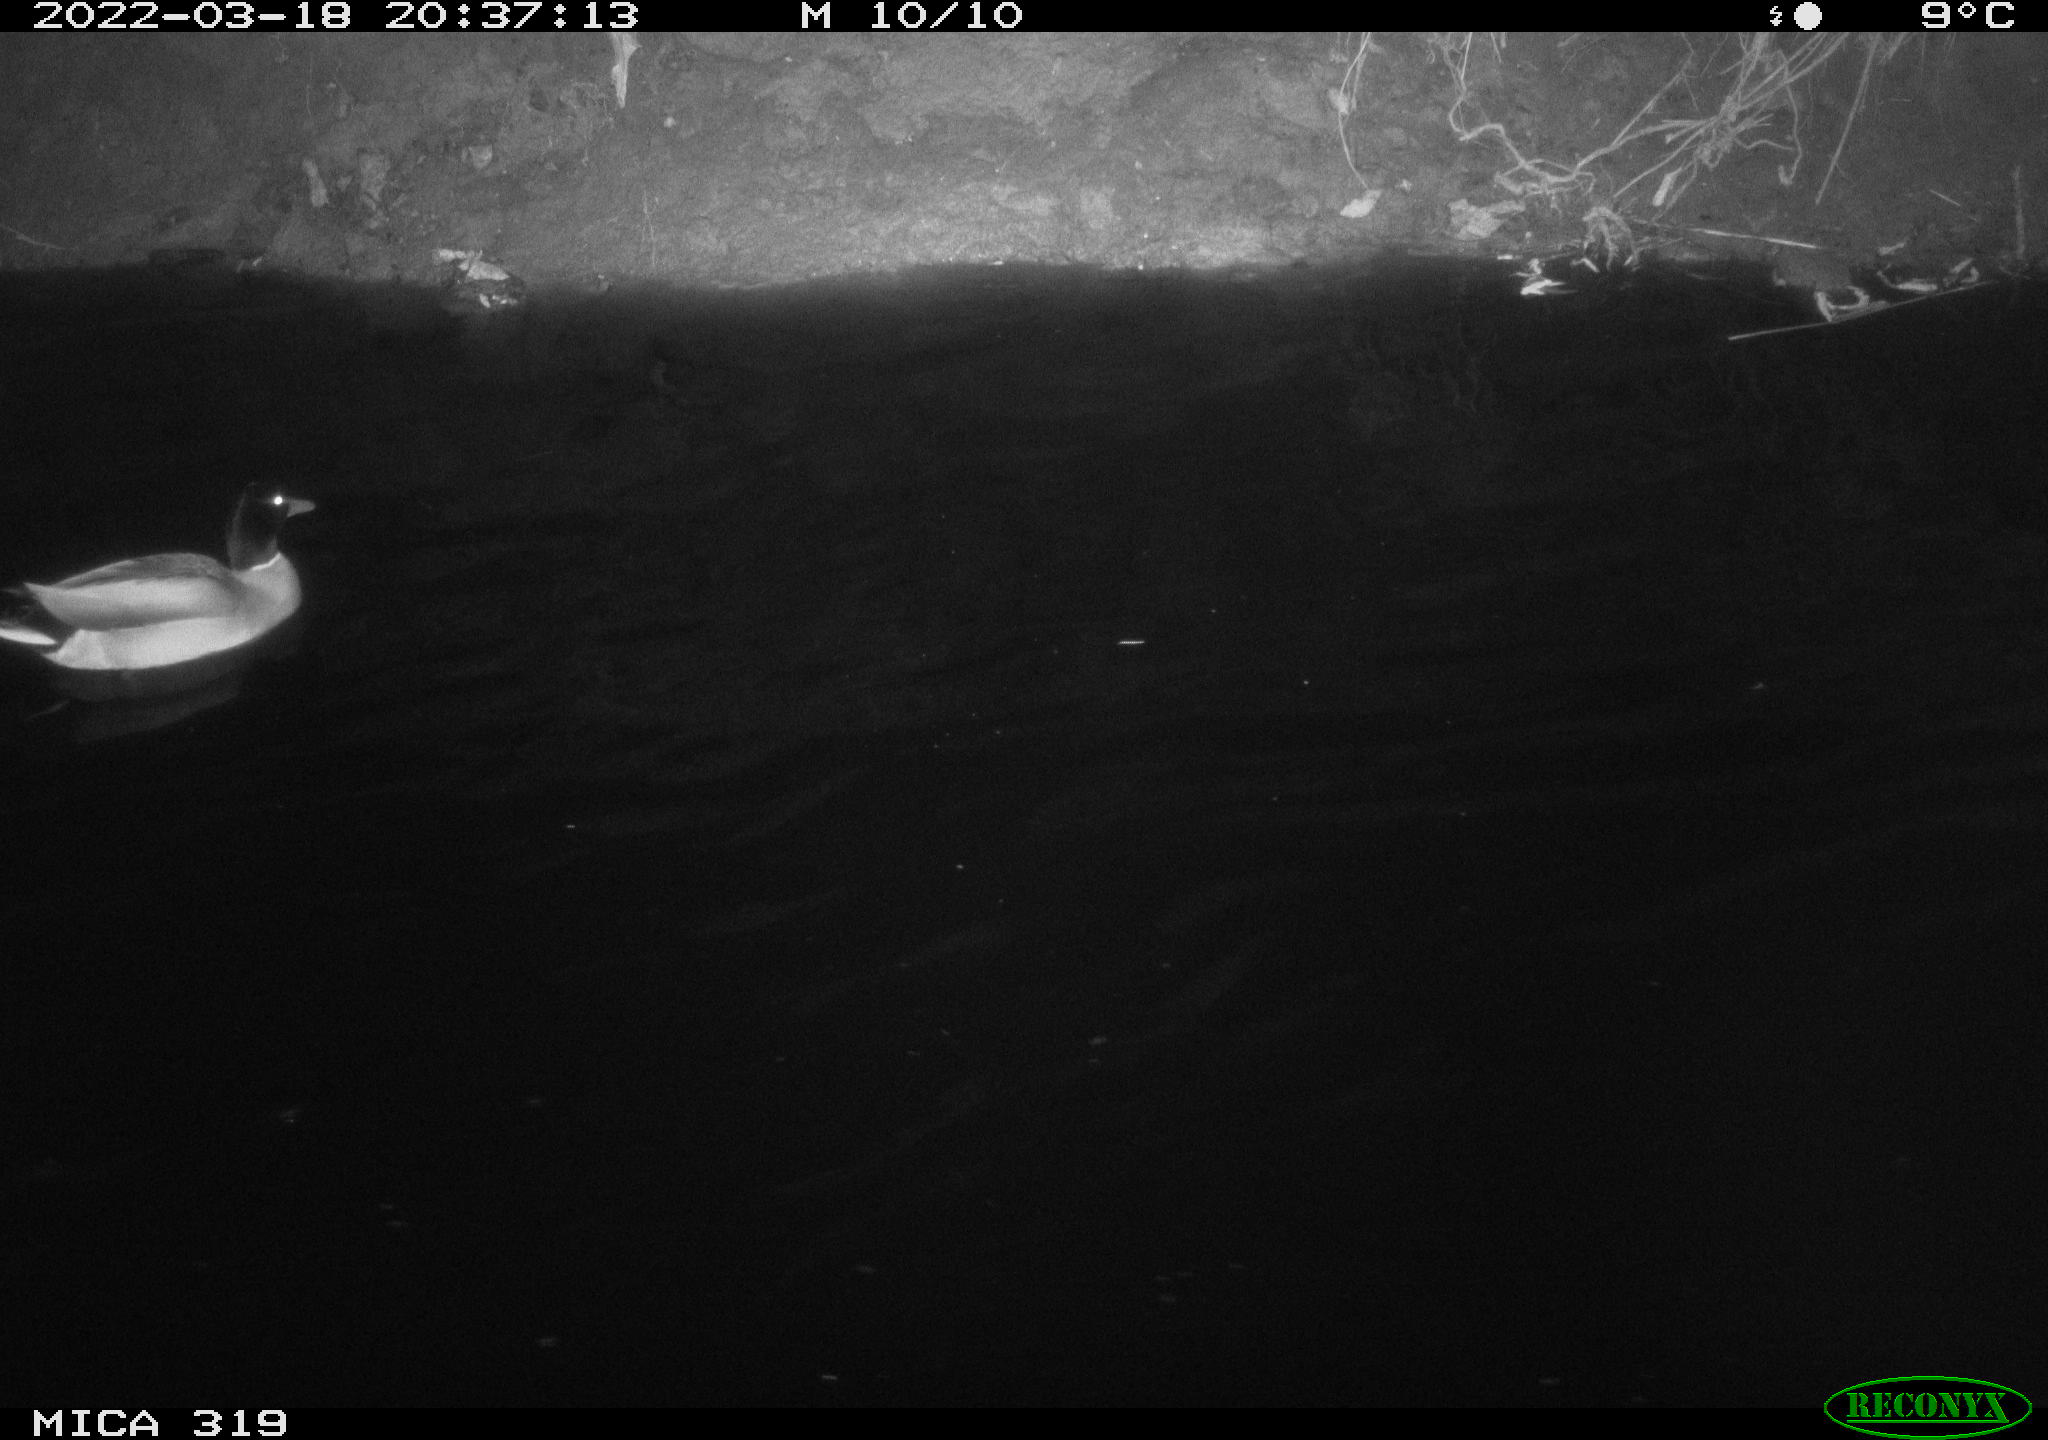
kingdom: Animalia
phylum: Chordata
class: Aves
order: Anseriformes
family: Anatidae
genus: Anas
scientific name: Anas platyrhynchos
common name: Mallard
